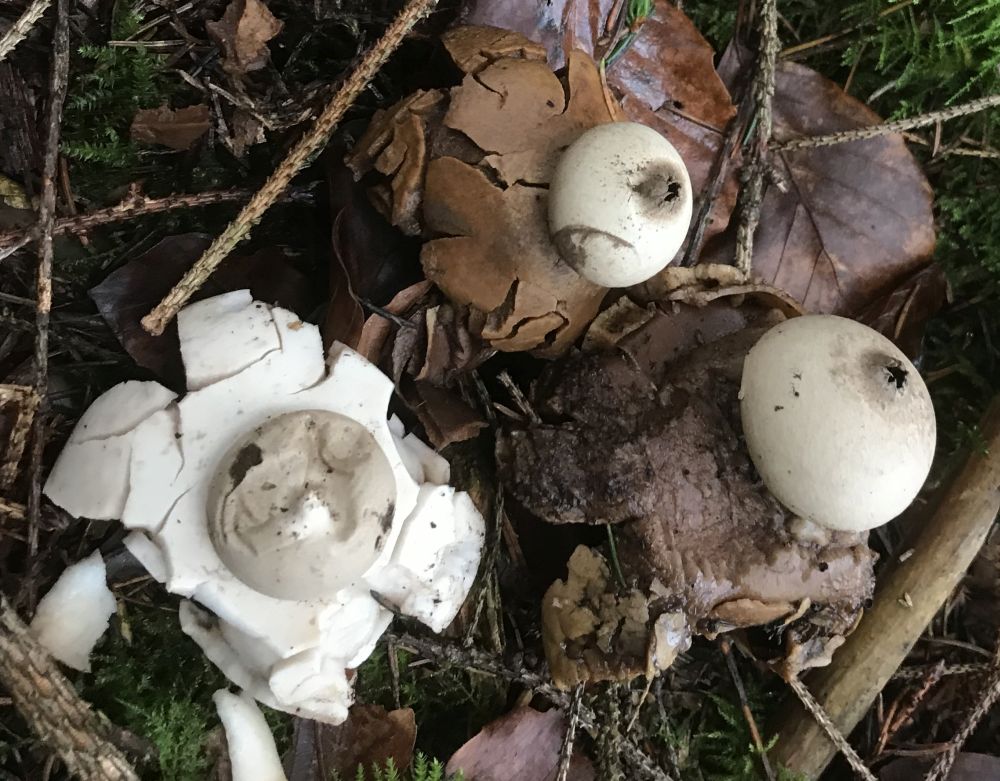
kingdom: Fungi
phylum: Basidiomycota
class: Agaricomycetes
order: Geastrales
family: Geastraceae
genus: Geastrum
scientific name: Geastrum michelianum
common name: kødet stjernebold
